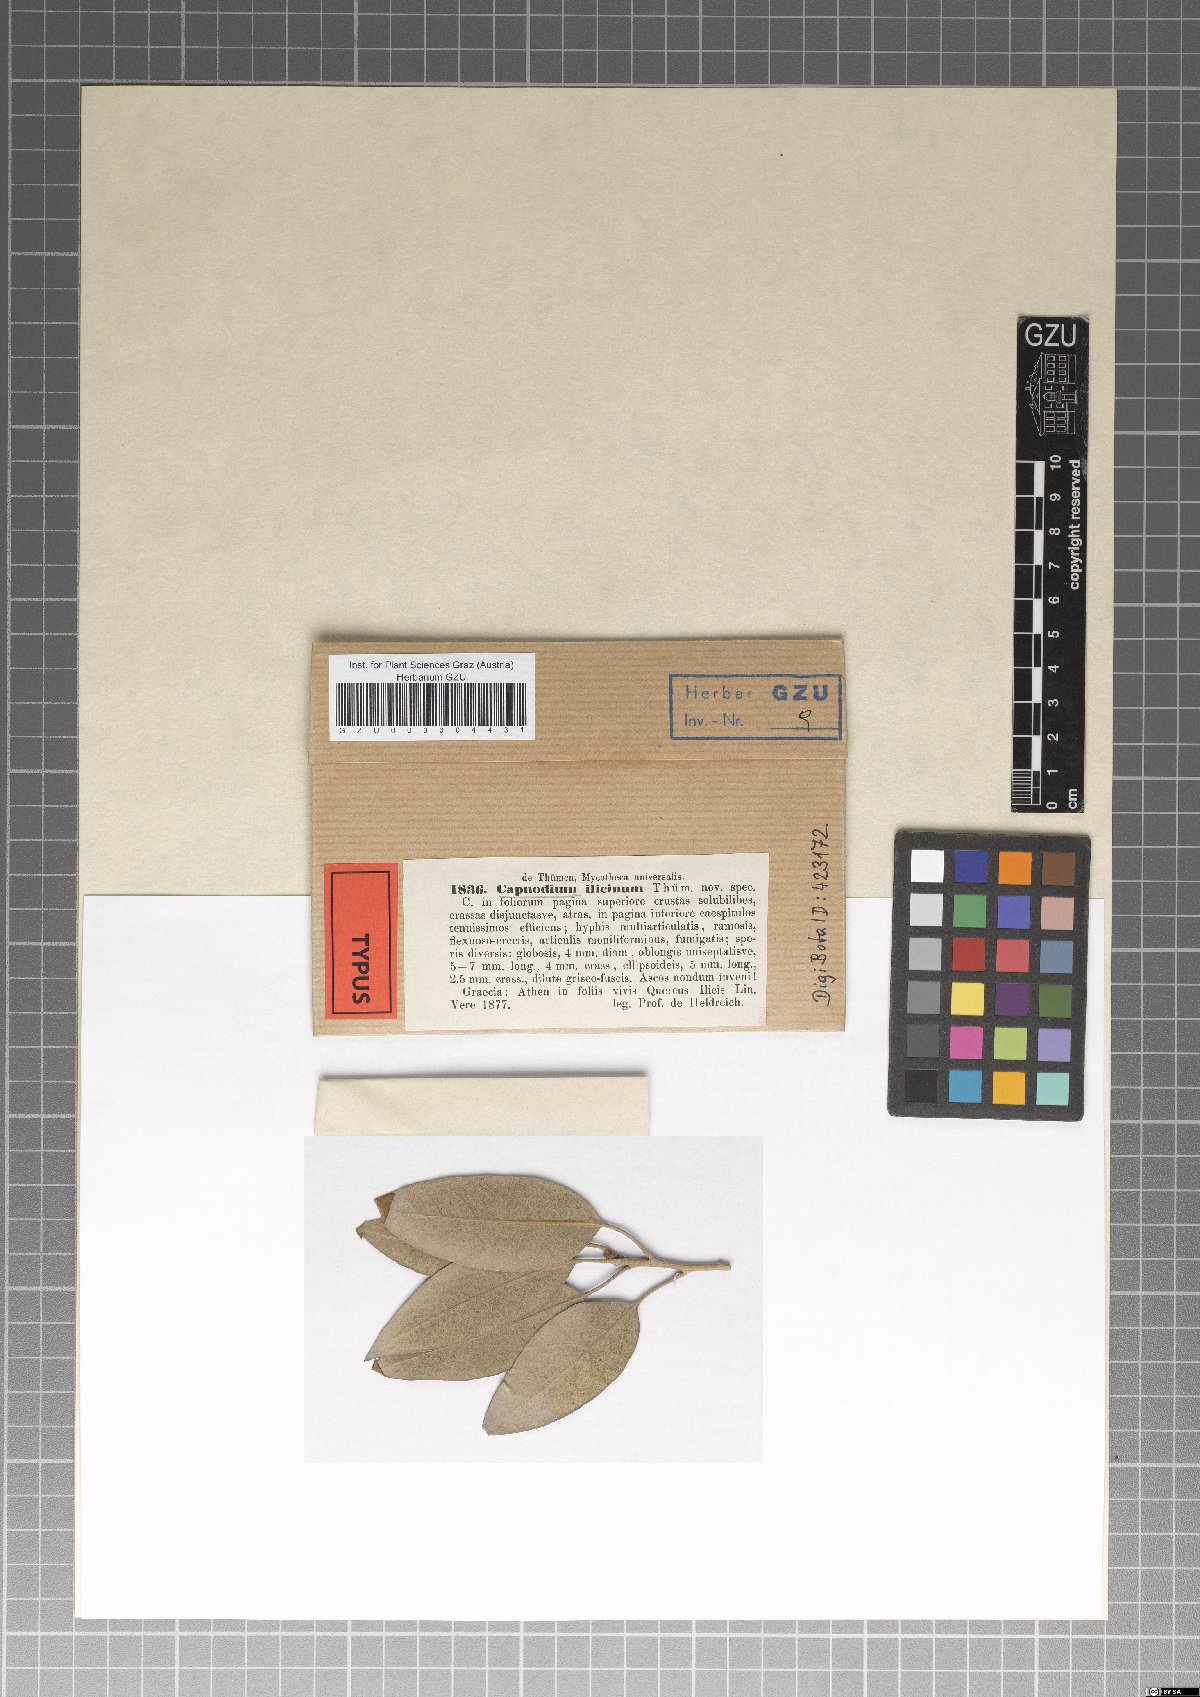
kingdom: Fungi
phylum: Ascomycota
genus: Microxyphiella
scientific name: Microxyphiella ilicina
